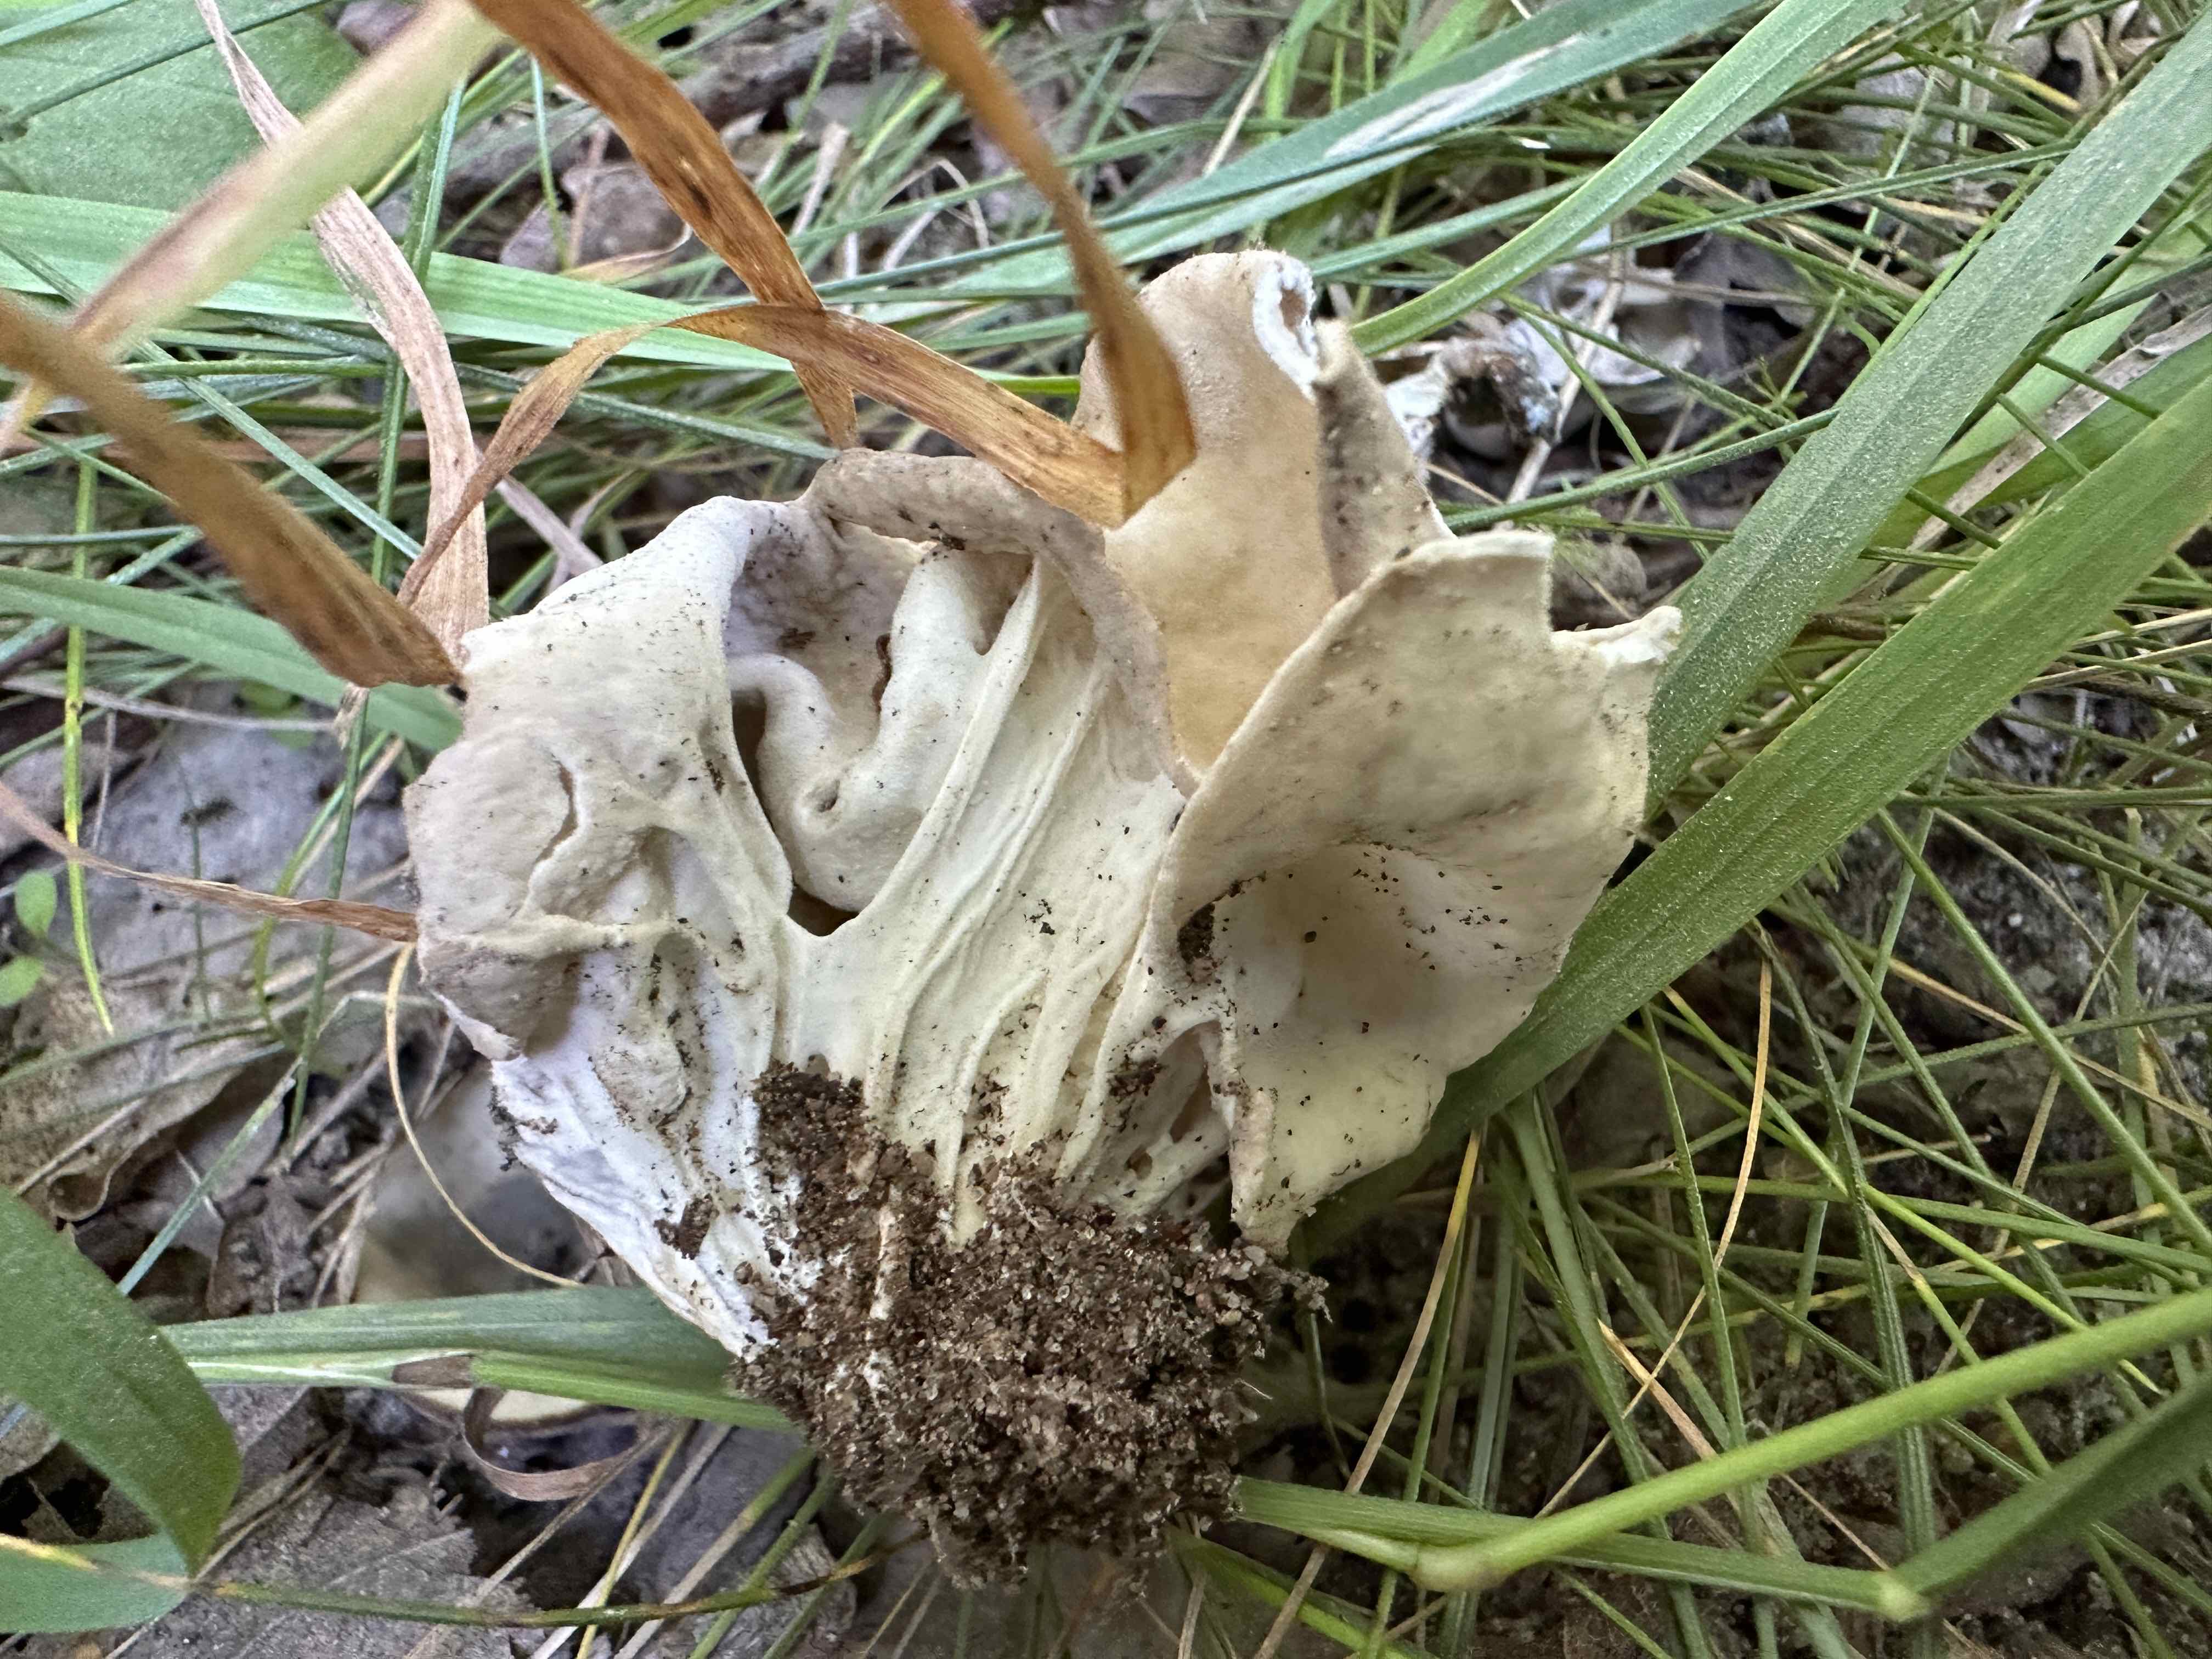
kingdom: Fungi
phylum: Ascomycota
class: Pezizomycetes
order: Pezizales
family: Helvellaceae
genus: Helvella
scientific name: Helvella crispa
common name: kruset foldhat
